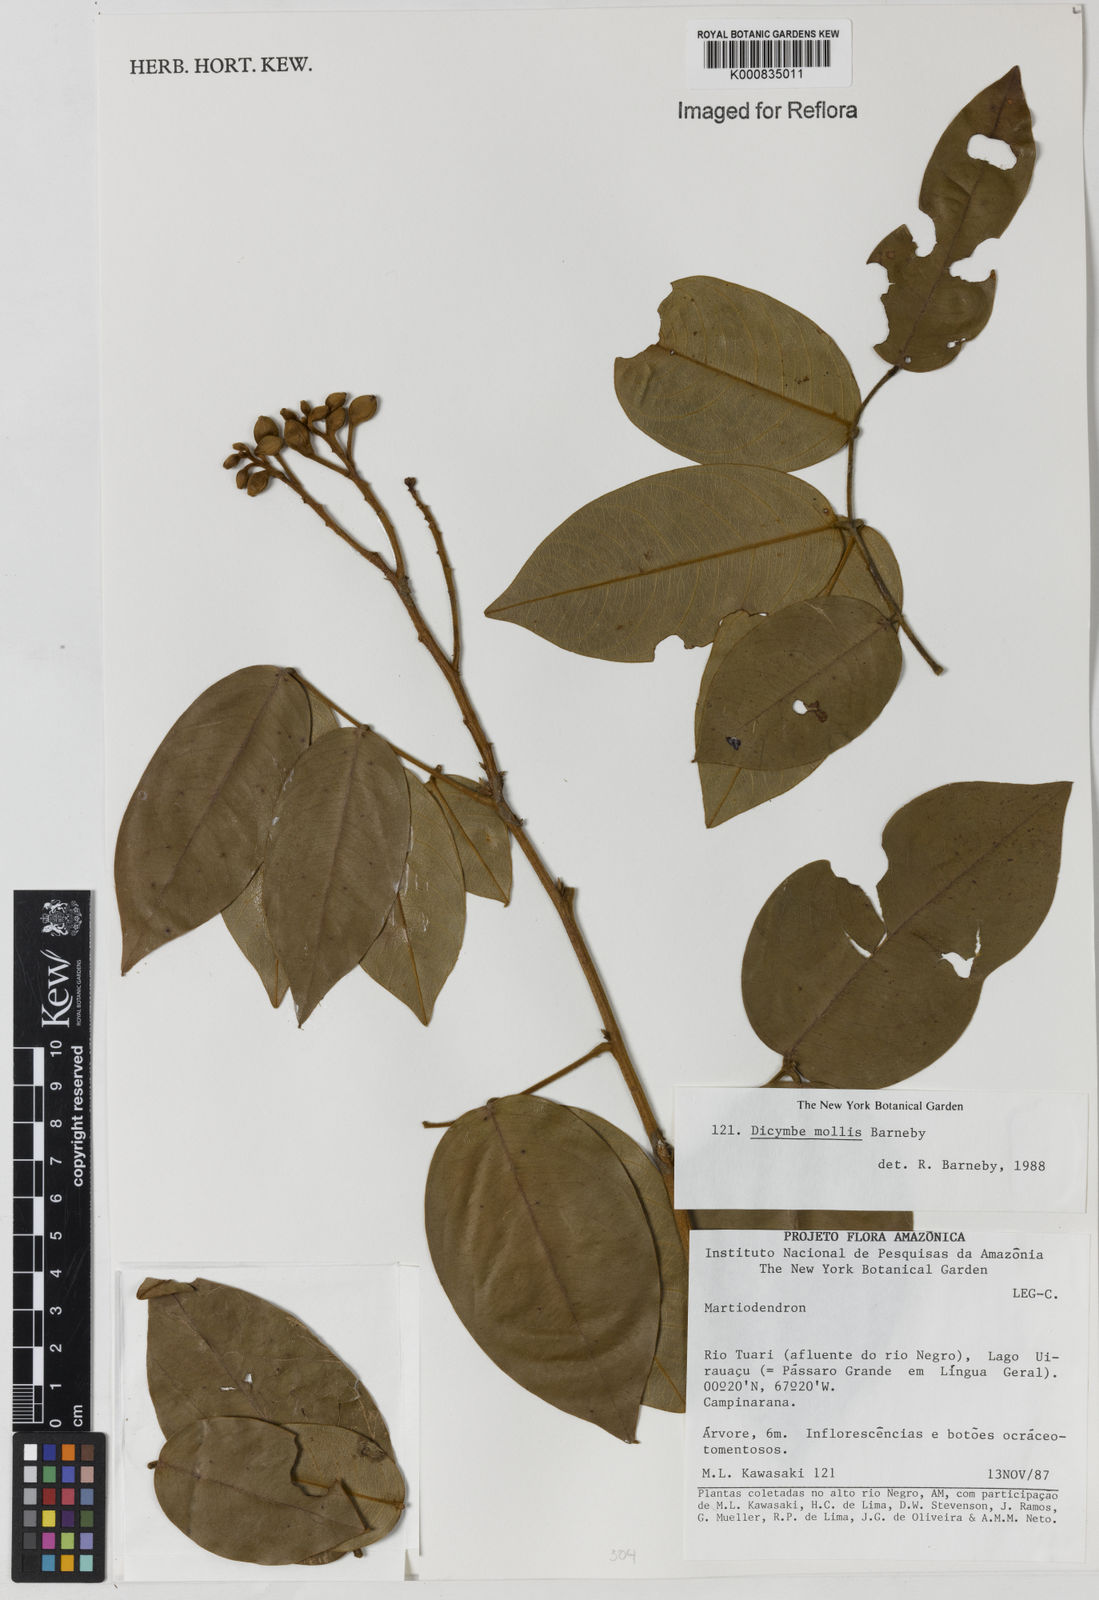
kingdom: Plantae
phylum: Tracheophyta
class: Magnoliopsida
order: Fabales
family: Fabaceae
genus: Dicymbe
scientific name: Dicymbe mollis
